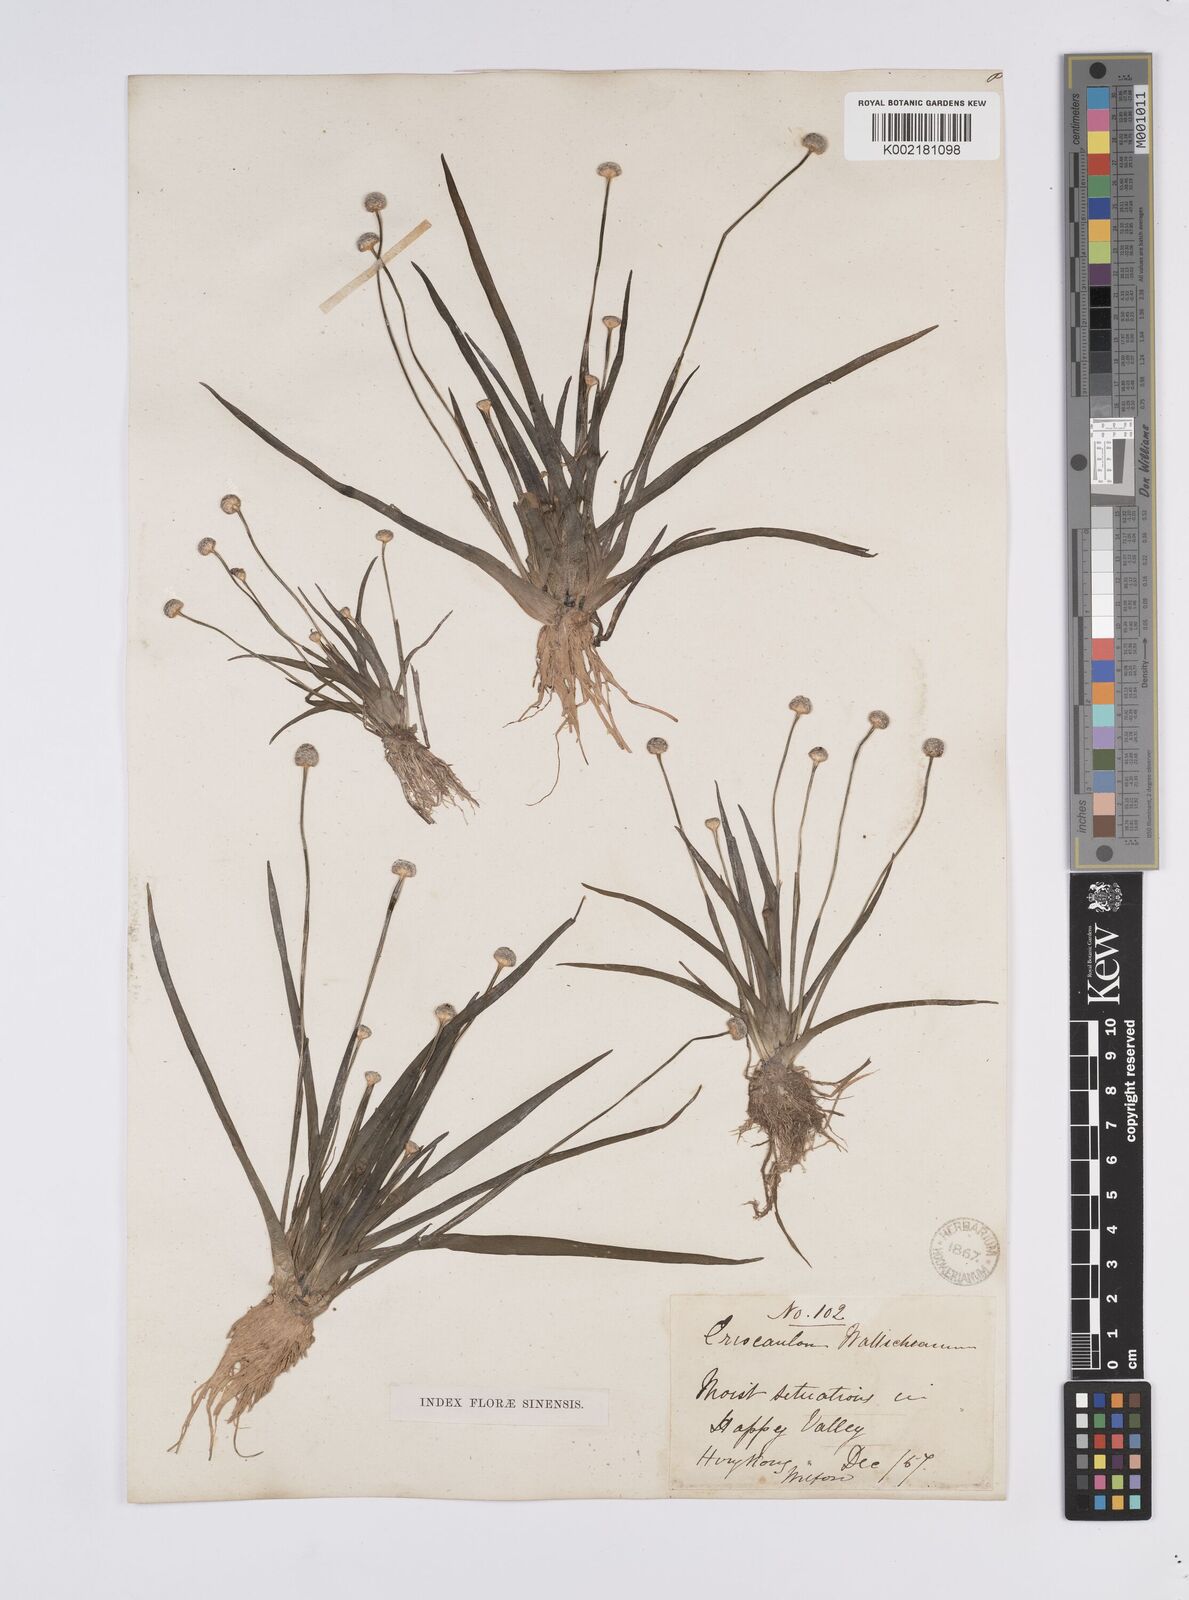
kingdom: Plantae
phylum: Tracheophyta
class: Liliopsida
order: Poales
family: Eriocaulaceae
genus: Eriocaulon
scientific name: Eriocaulon sexangulare
